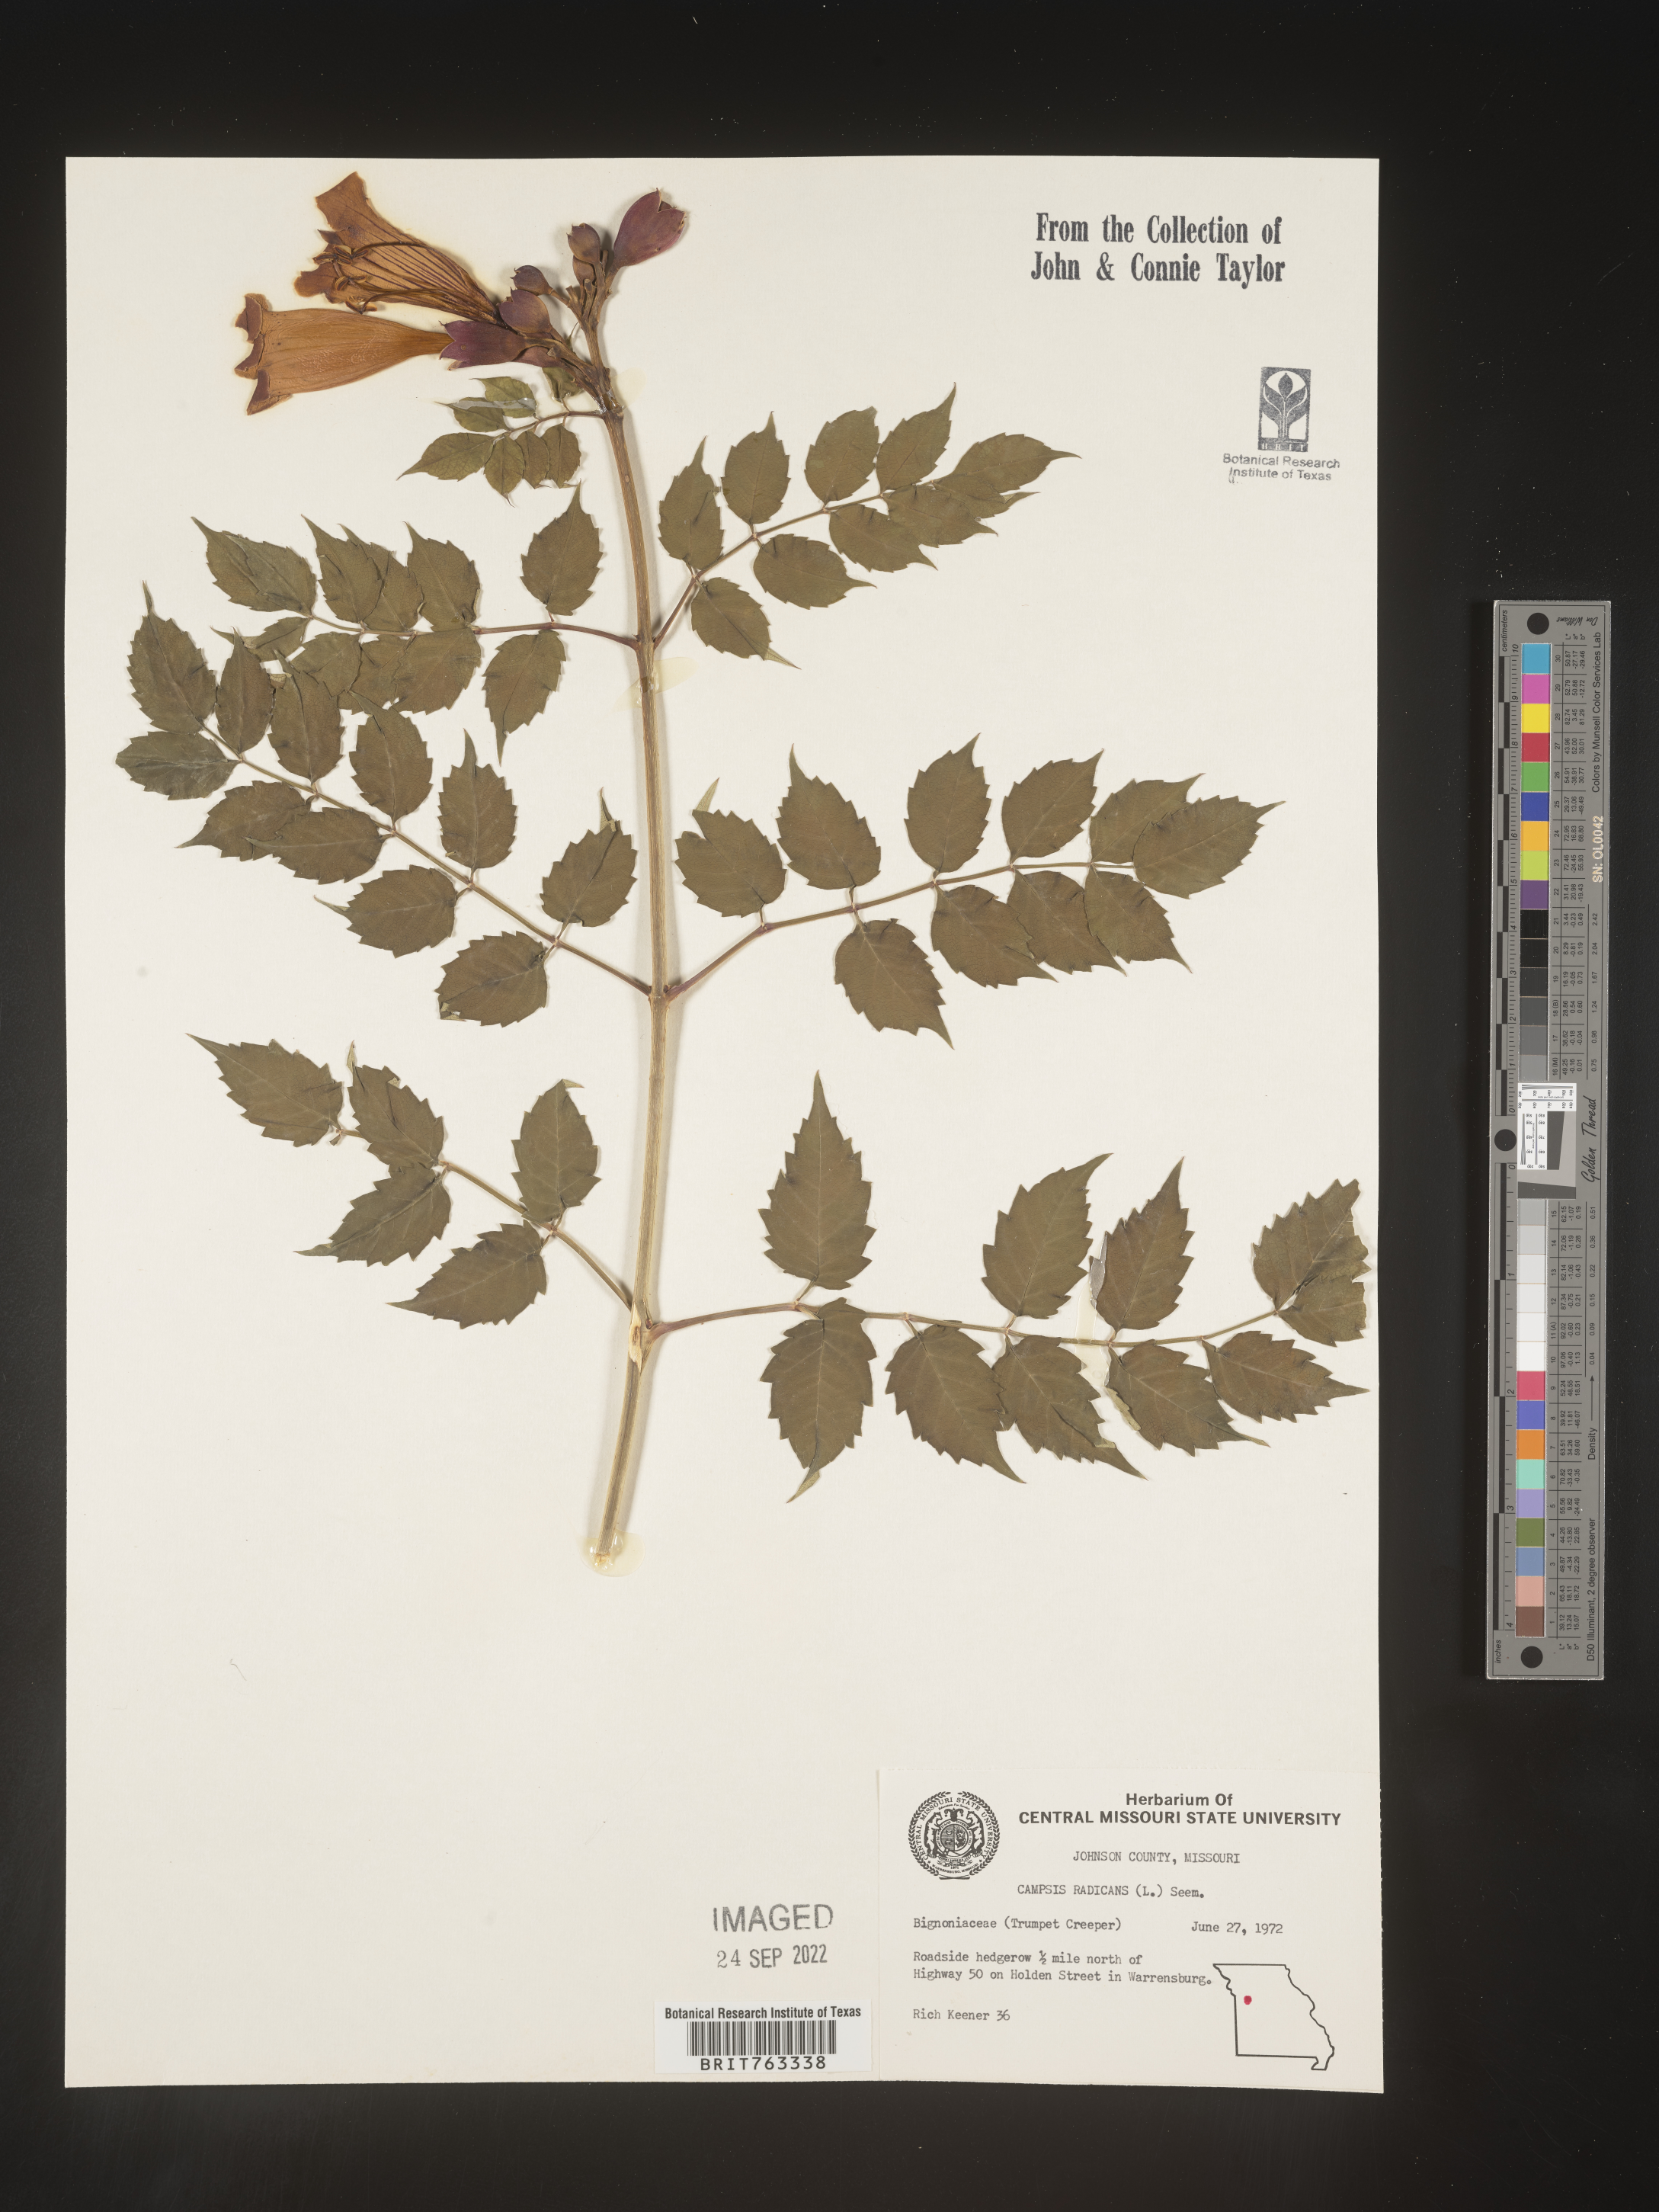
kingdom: Plantae
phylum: Tracheophyta
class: Magnoliopsida
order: Lamiales
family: Bignoniaceae
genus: Campsis
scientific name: Campsis radicans
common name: Trumpet-creeper
